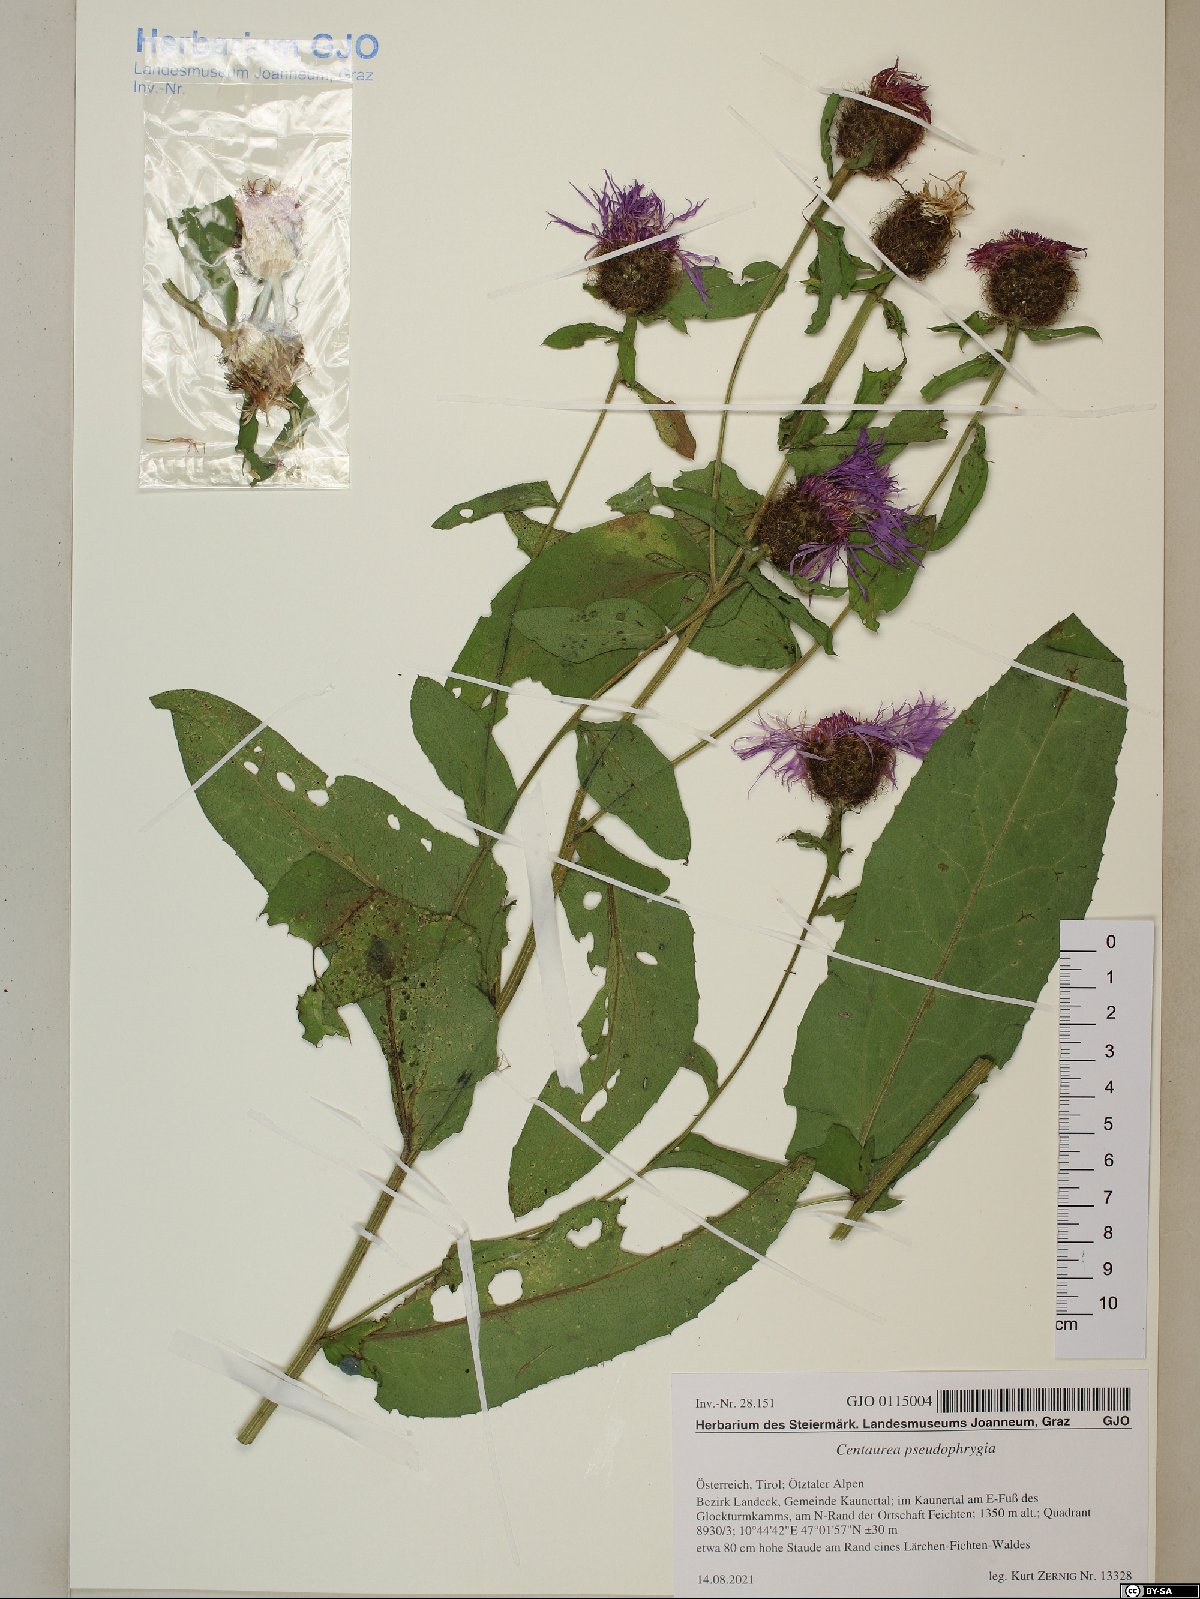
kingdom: Plantae
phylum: Tracheophyta
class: Magnoliopsida
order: Asterales
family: Asteraceae
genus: Centaurea
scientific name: Centaurea pseudophrygia
